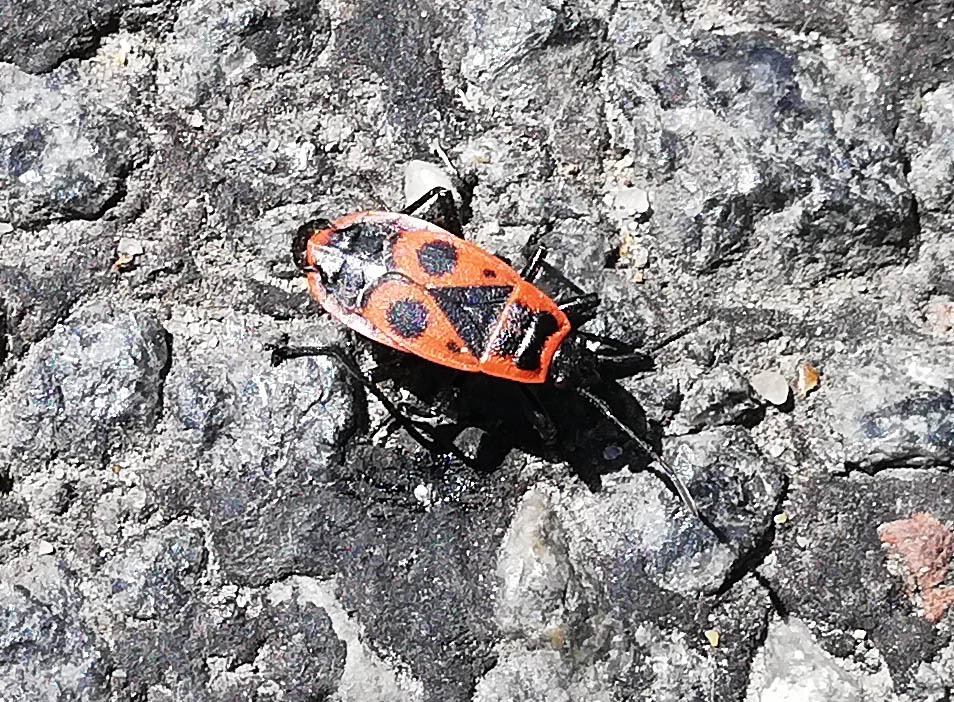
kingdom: Animalia
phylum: Arthropoda
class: Insecta
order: Hemiptera
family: Pyrrhocoridae
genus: Pyrrhocoris
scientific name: Pyrrhocoris apterus
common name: Ildtæge
